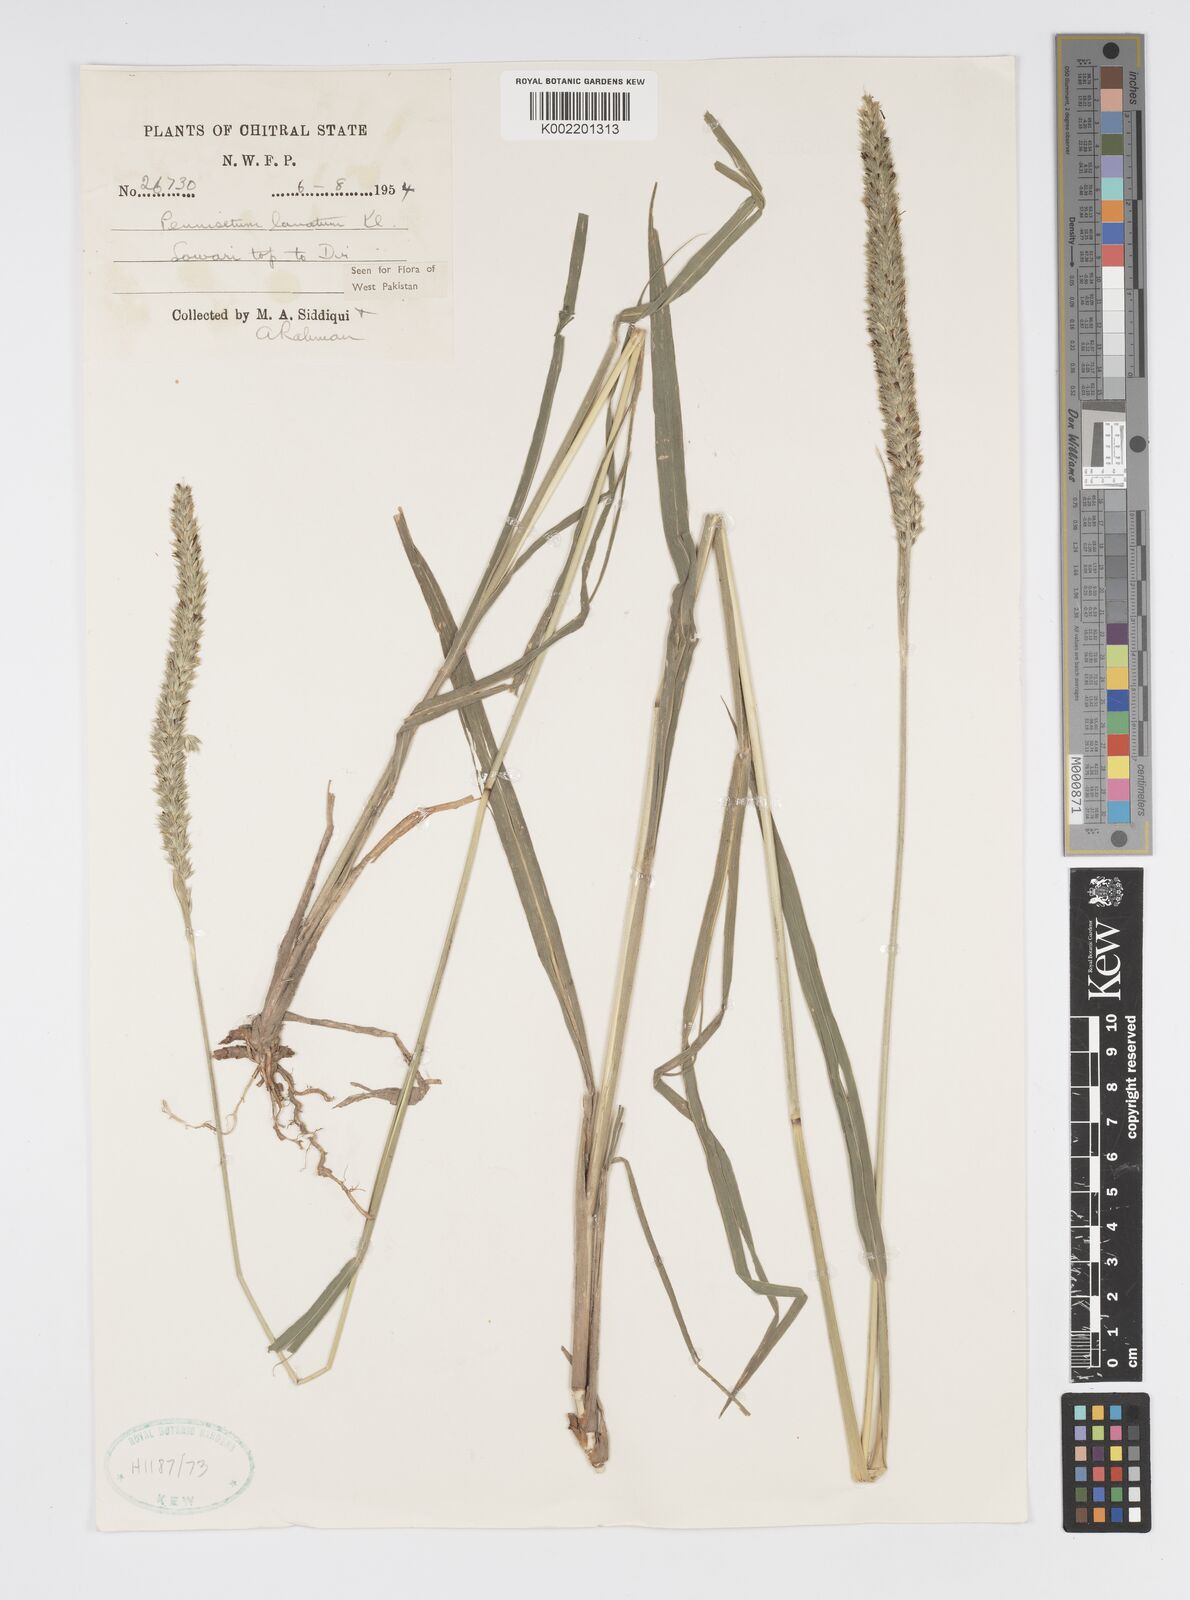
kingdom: Plantae
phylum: Tracheophyta
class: Liliopsida
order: Poales
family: Poaceae
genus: Cenchrus
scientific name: Cenchrus lanatus
